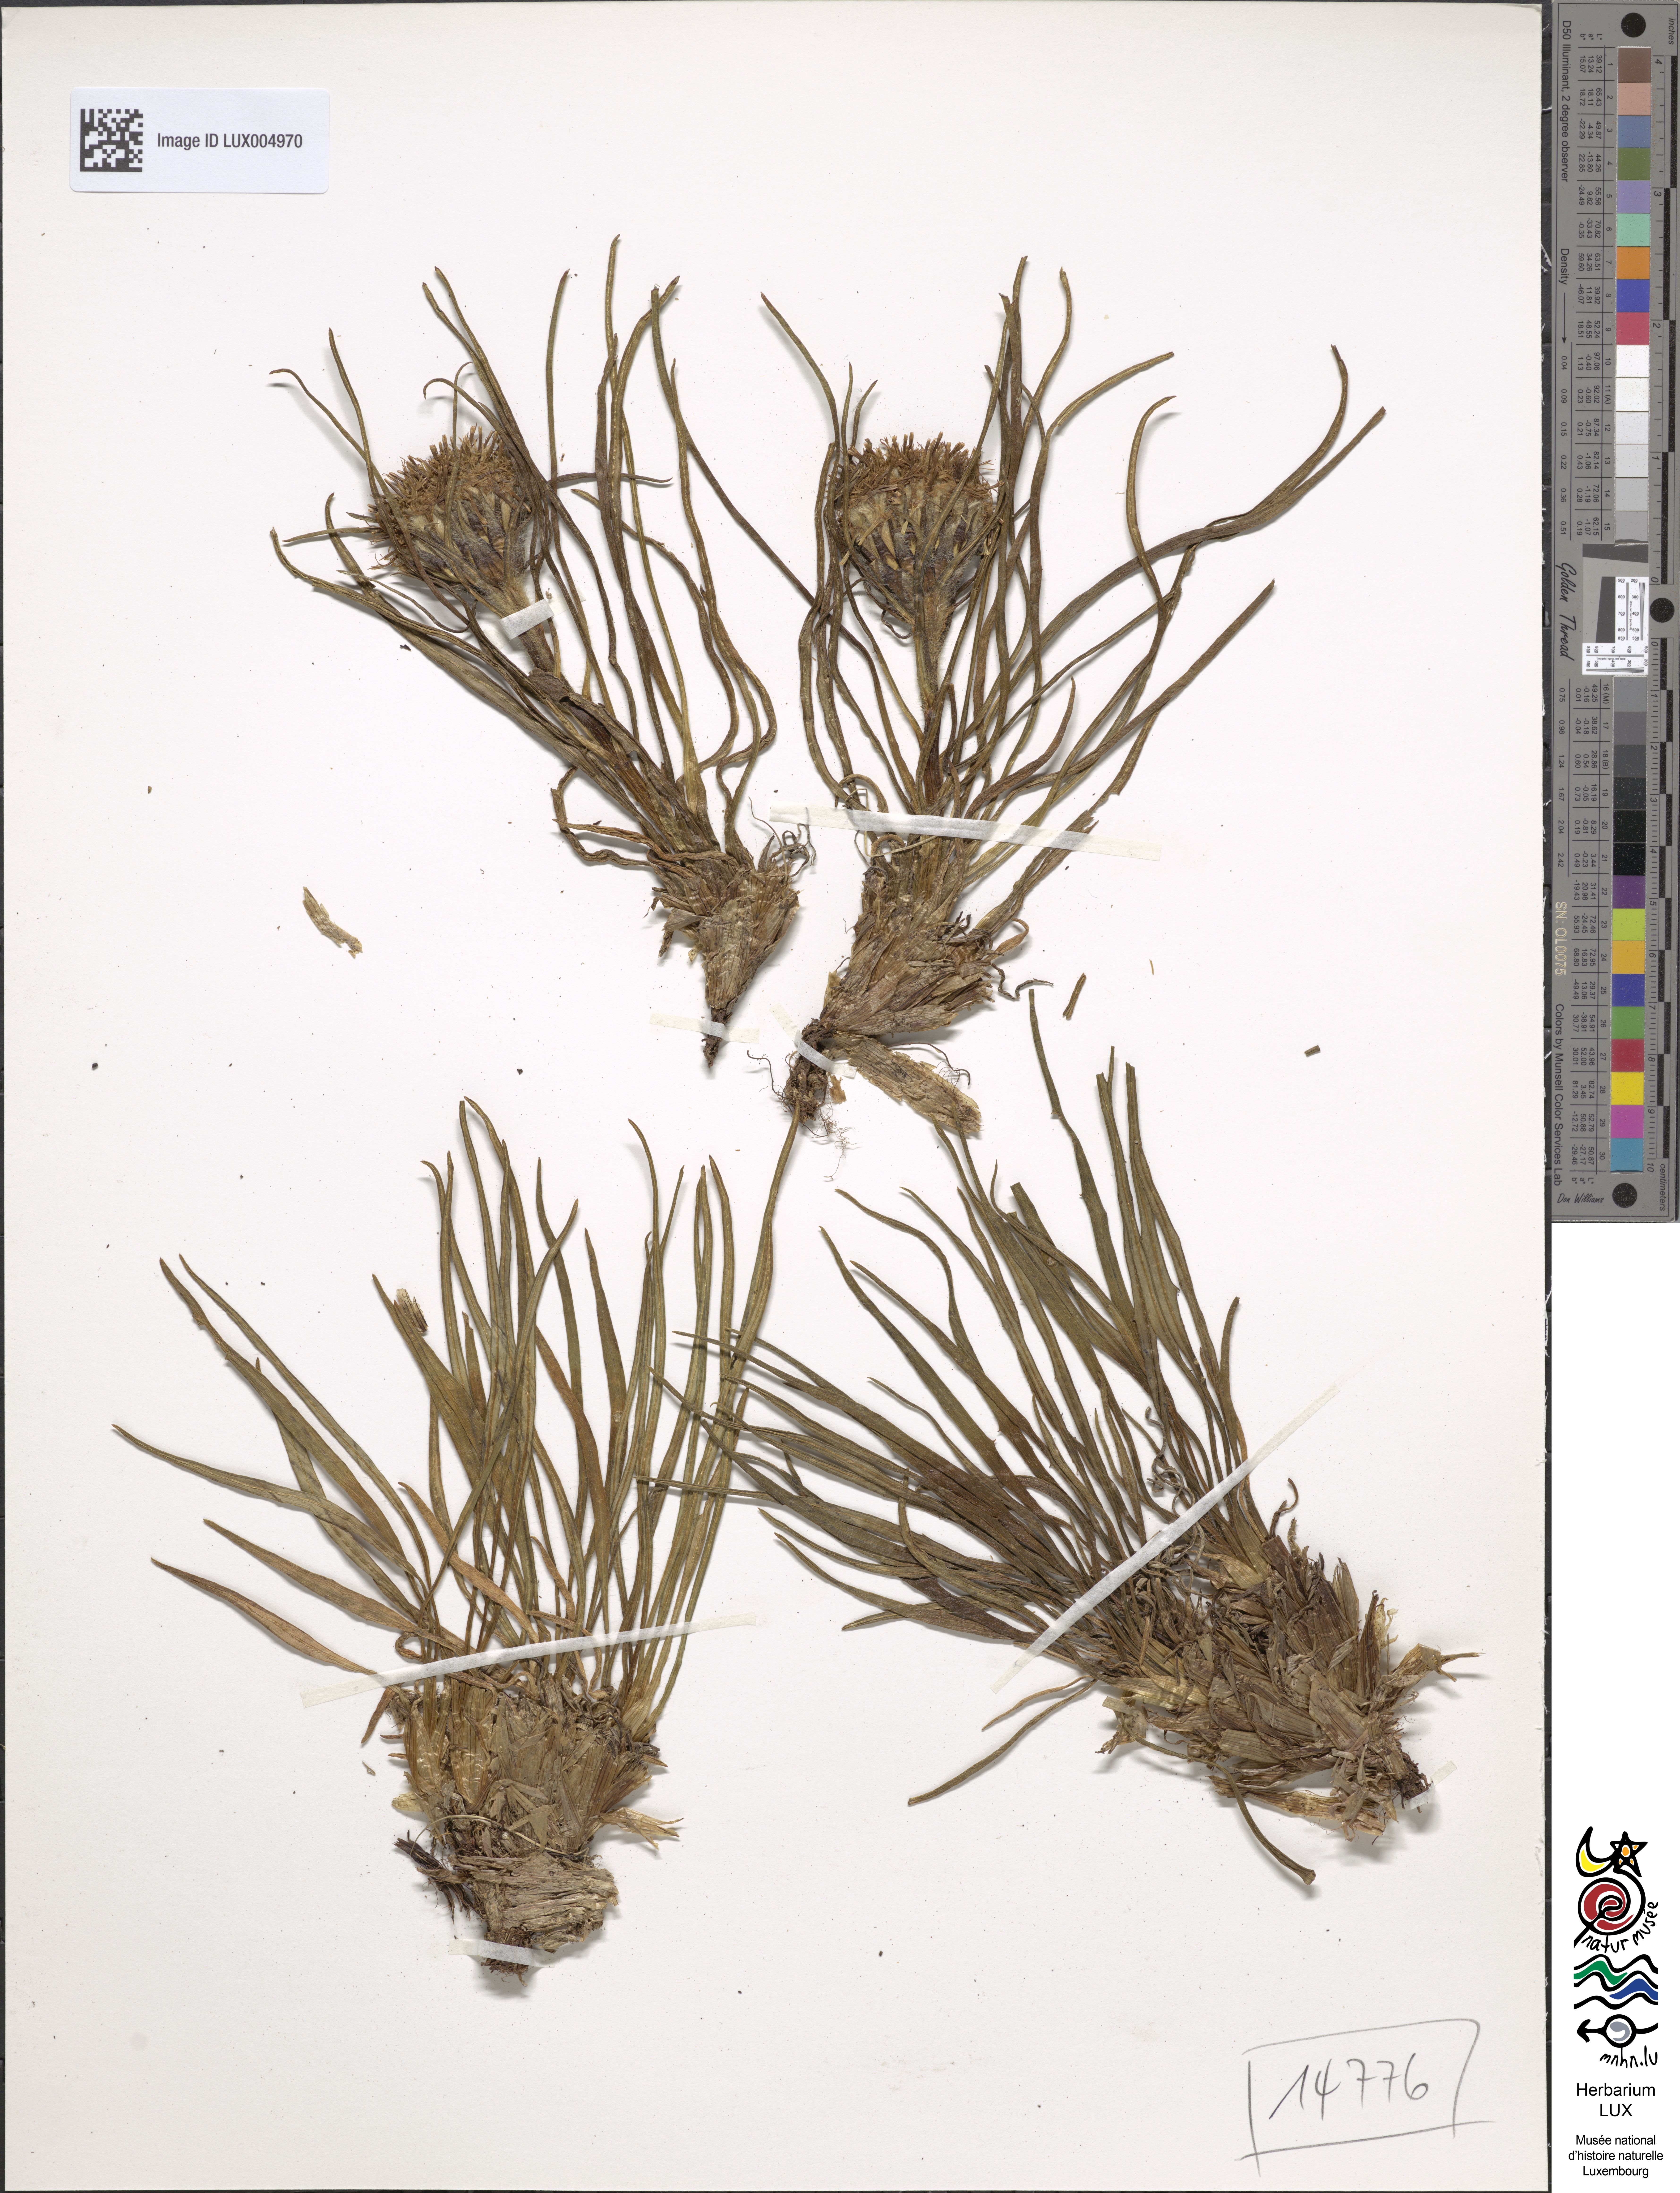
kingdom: Plantae
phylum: Tracheophyta
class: Magnoliopsida
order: Asterales
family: Asteraceae
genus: Saussurea
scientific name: Saussurea pygmaea
